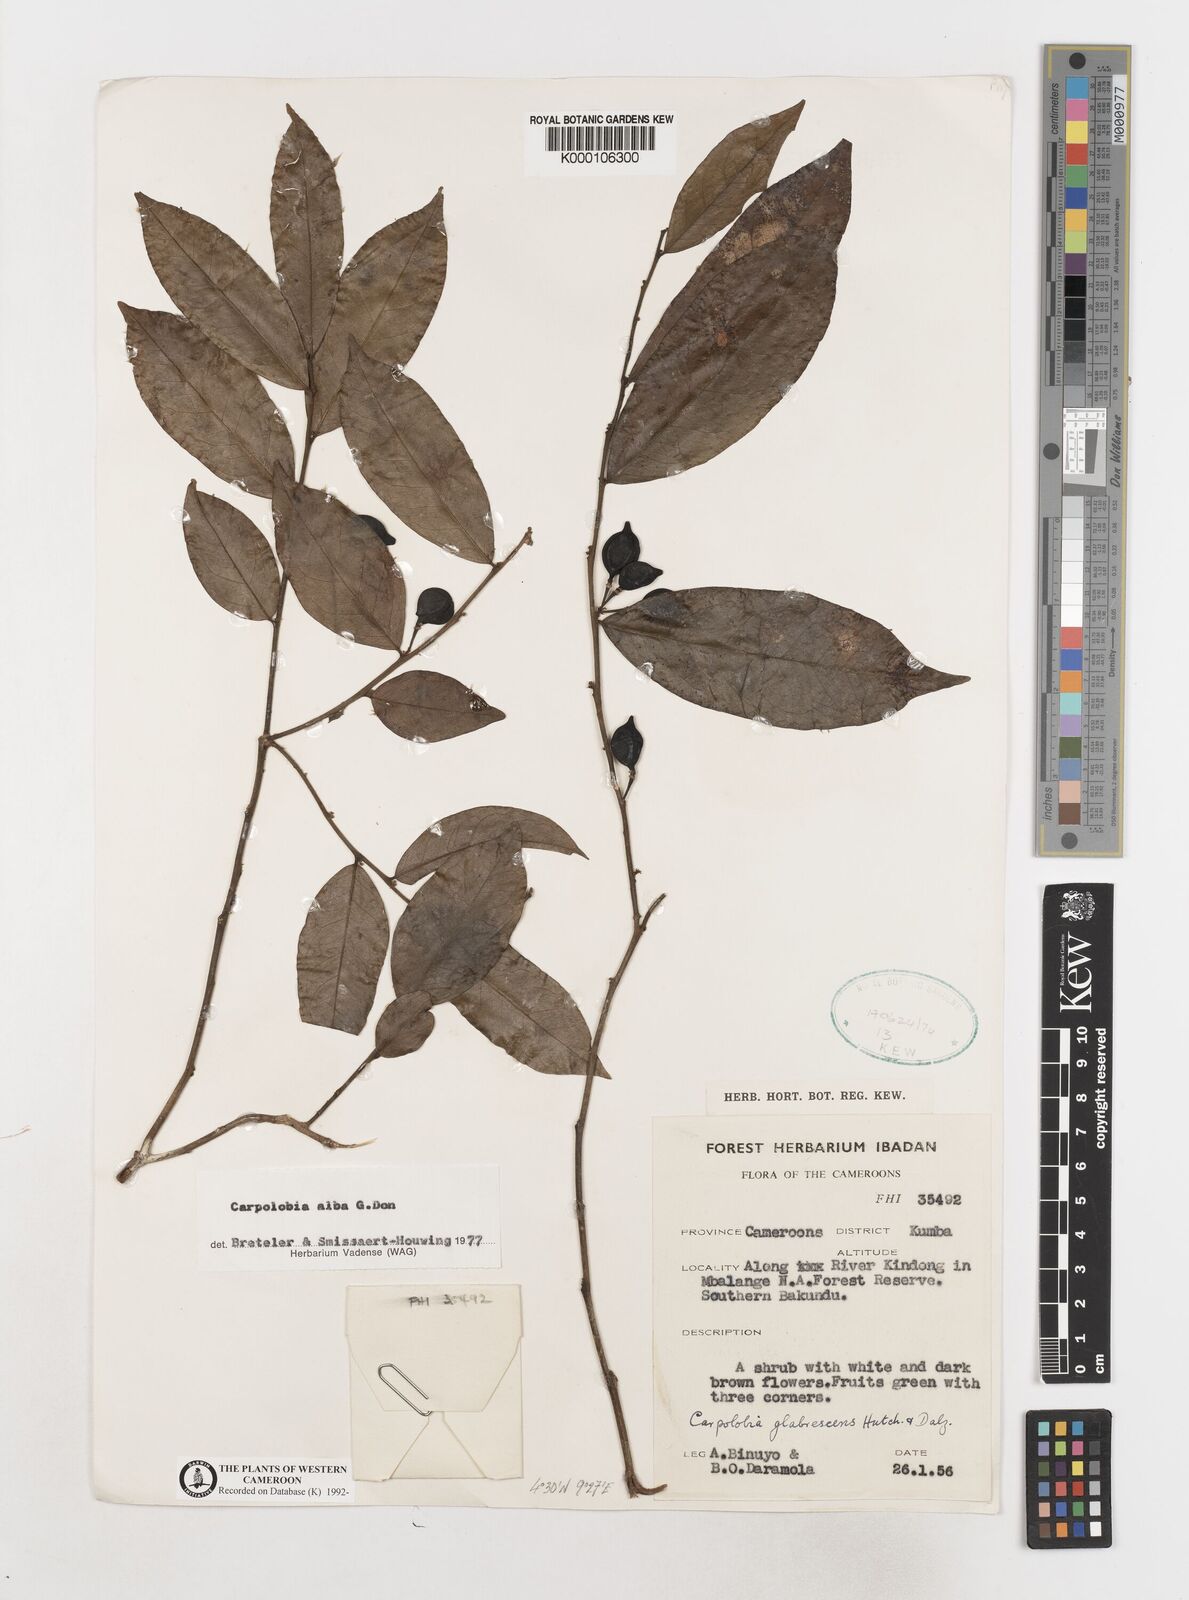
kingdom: Plantae
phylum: Tracheophyta
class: Magnoliopsida
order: Fabales
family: Polygalaceae
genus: Carpolobia
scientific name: Carpolobia alba
